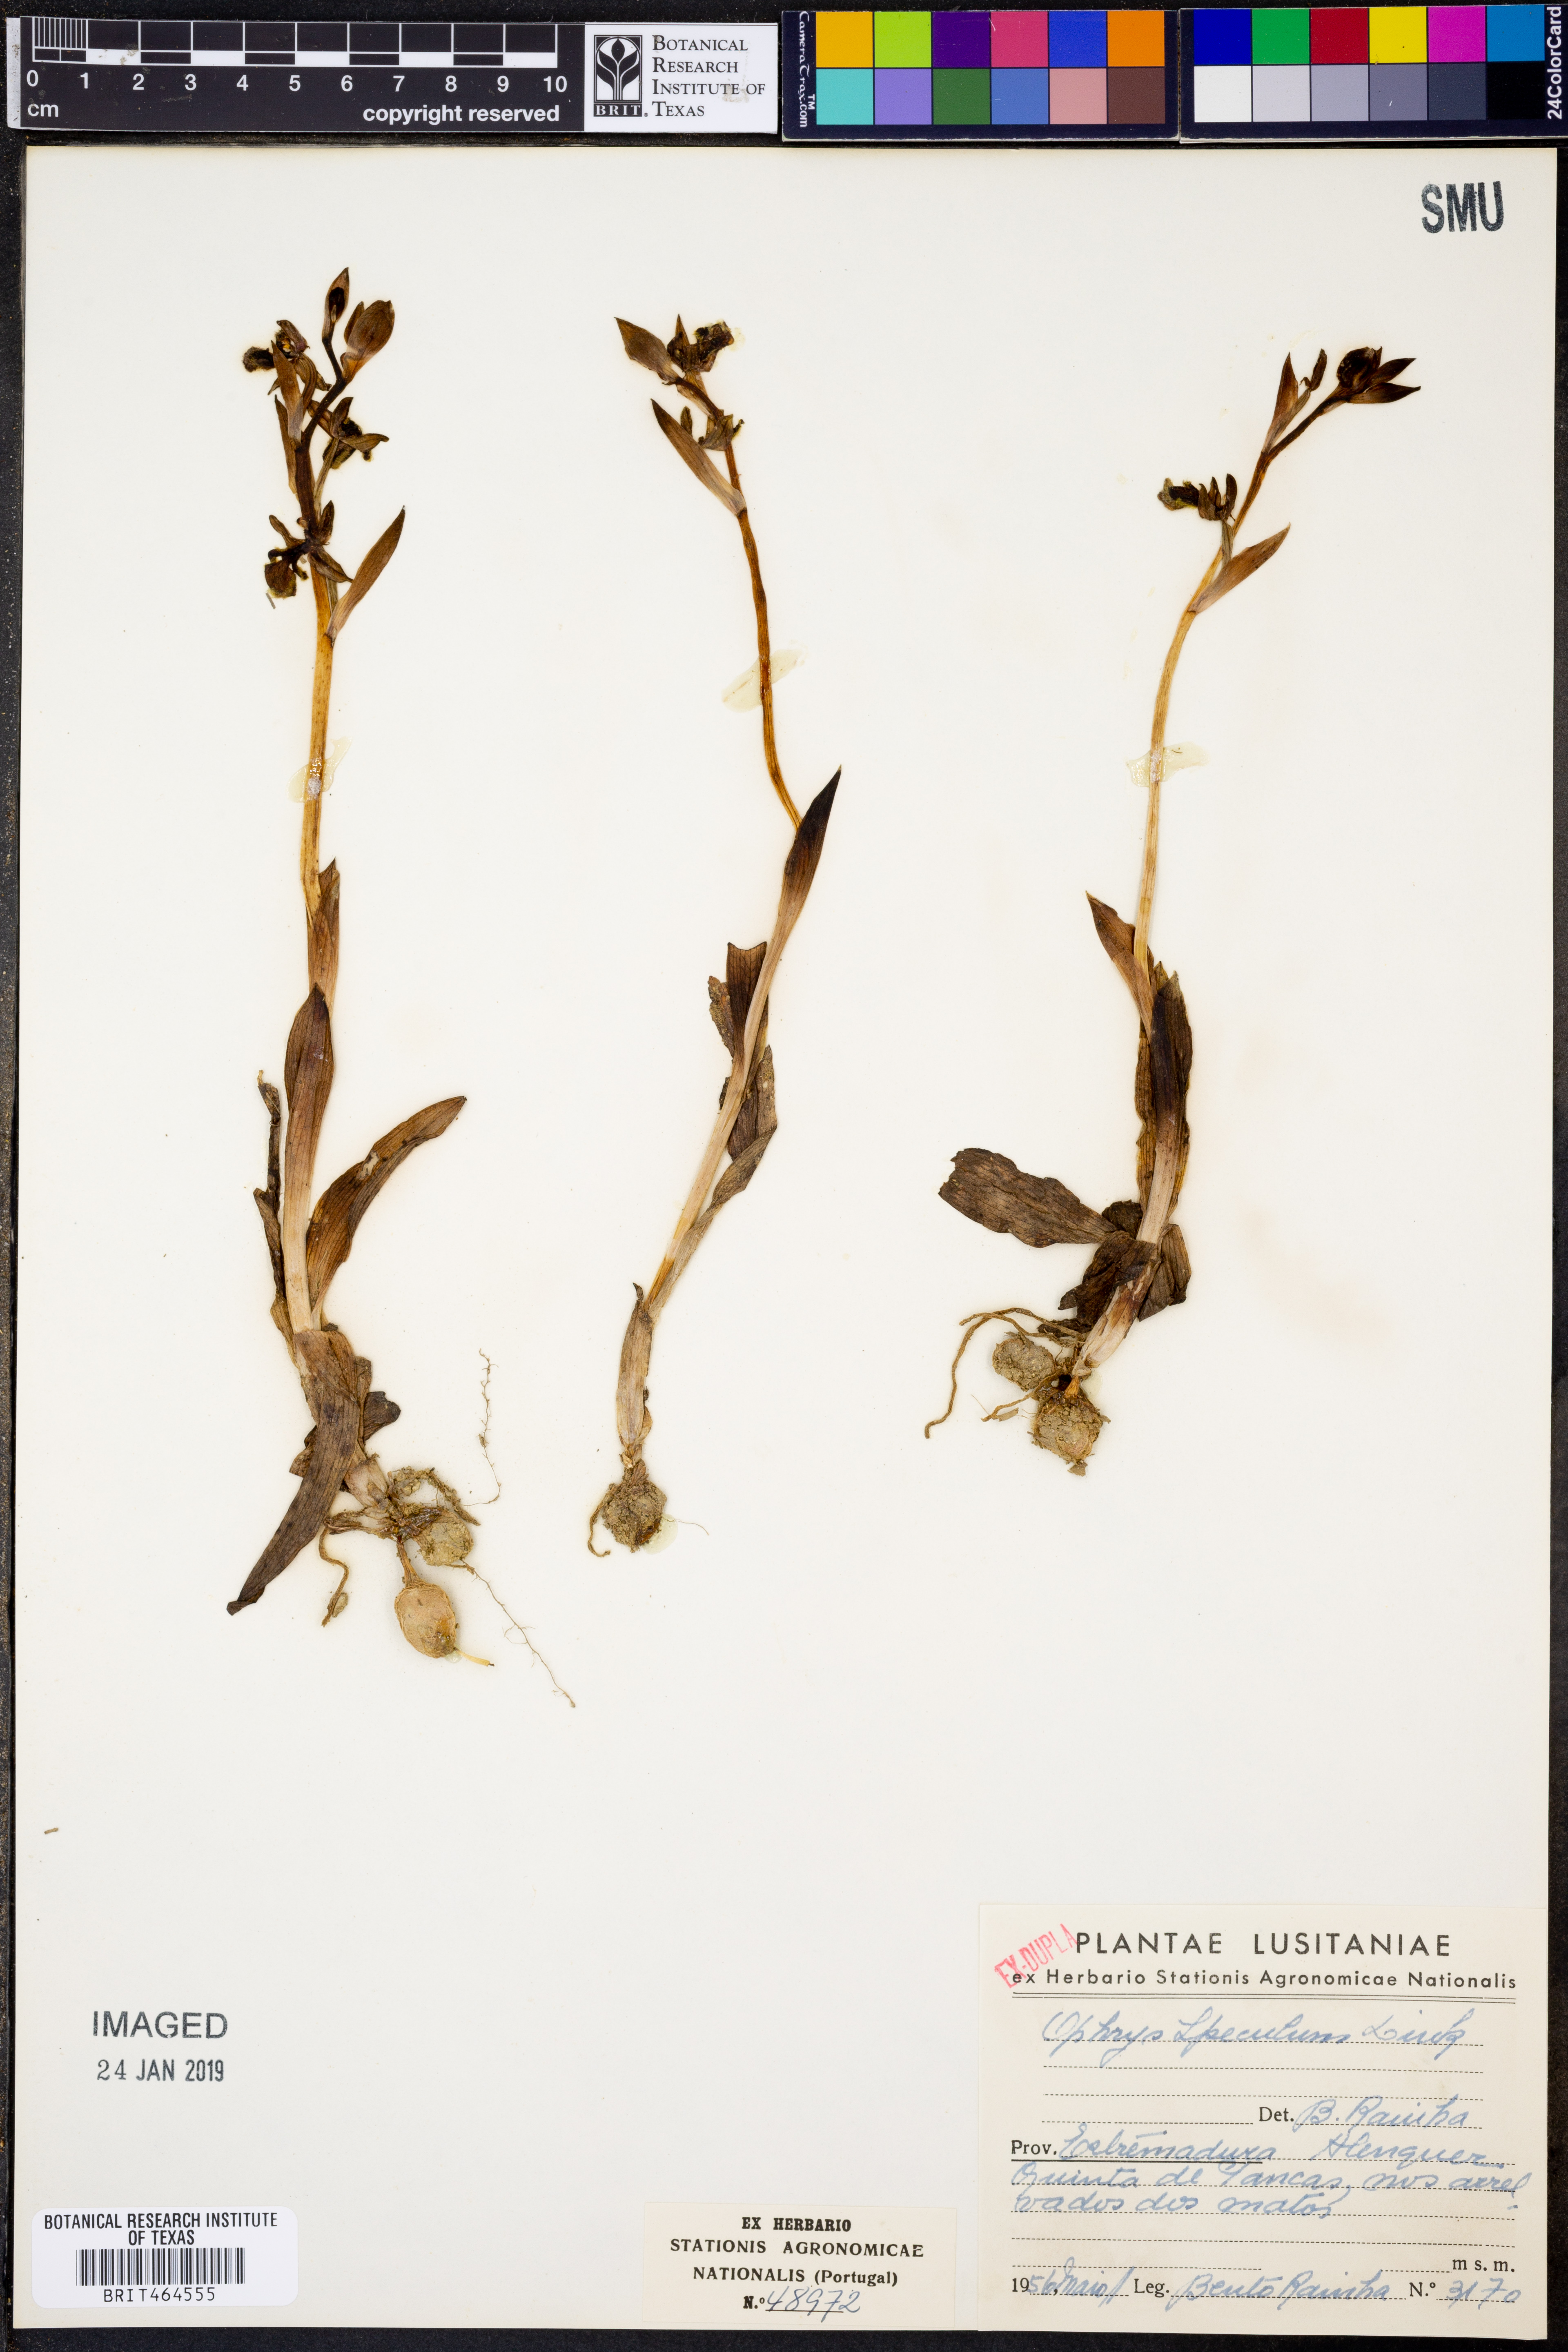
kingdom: Plantae
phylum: Tracheophyta
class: Liliopsida
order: Asparagales
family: Orchidaceae
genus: Ophrys
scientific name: Ophrys speculum
